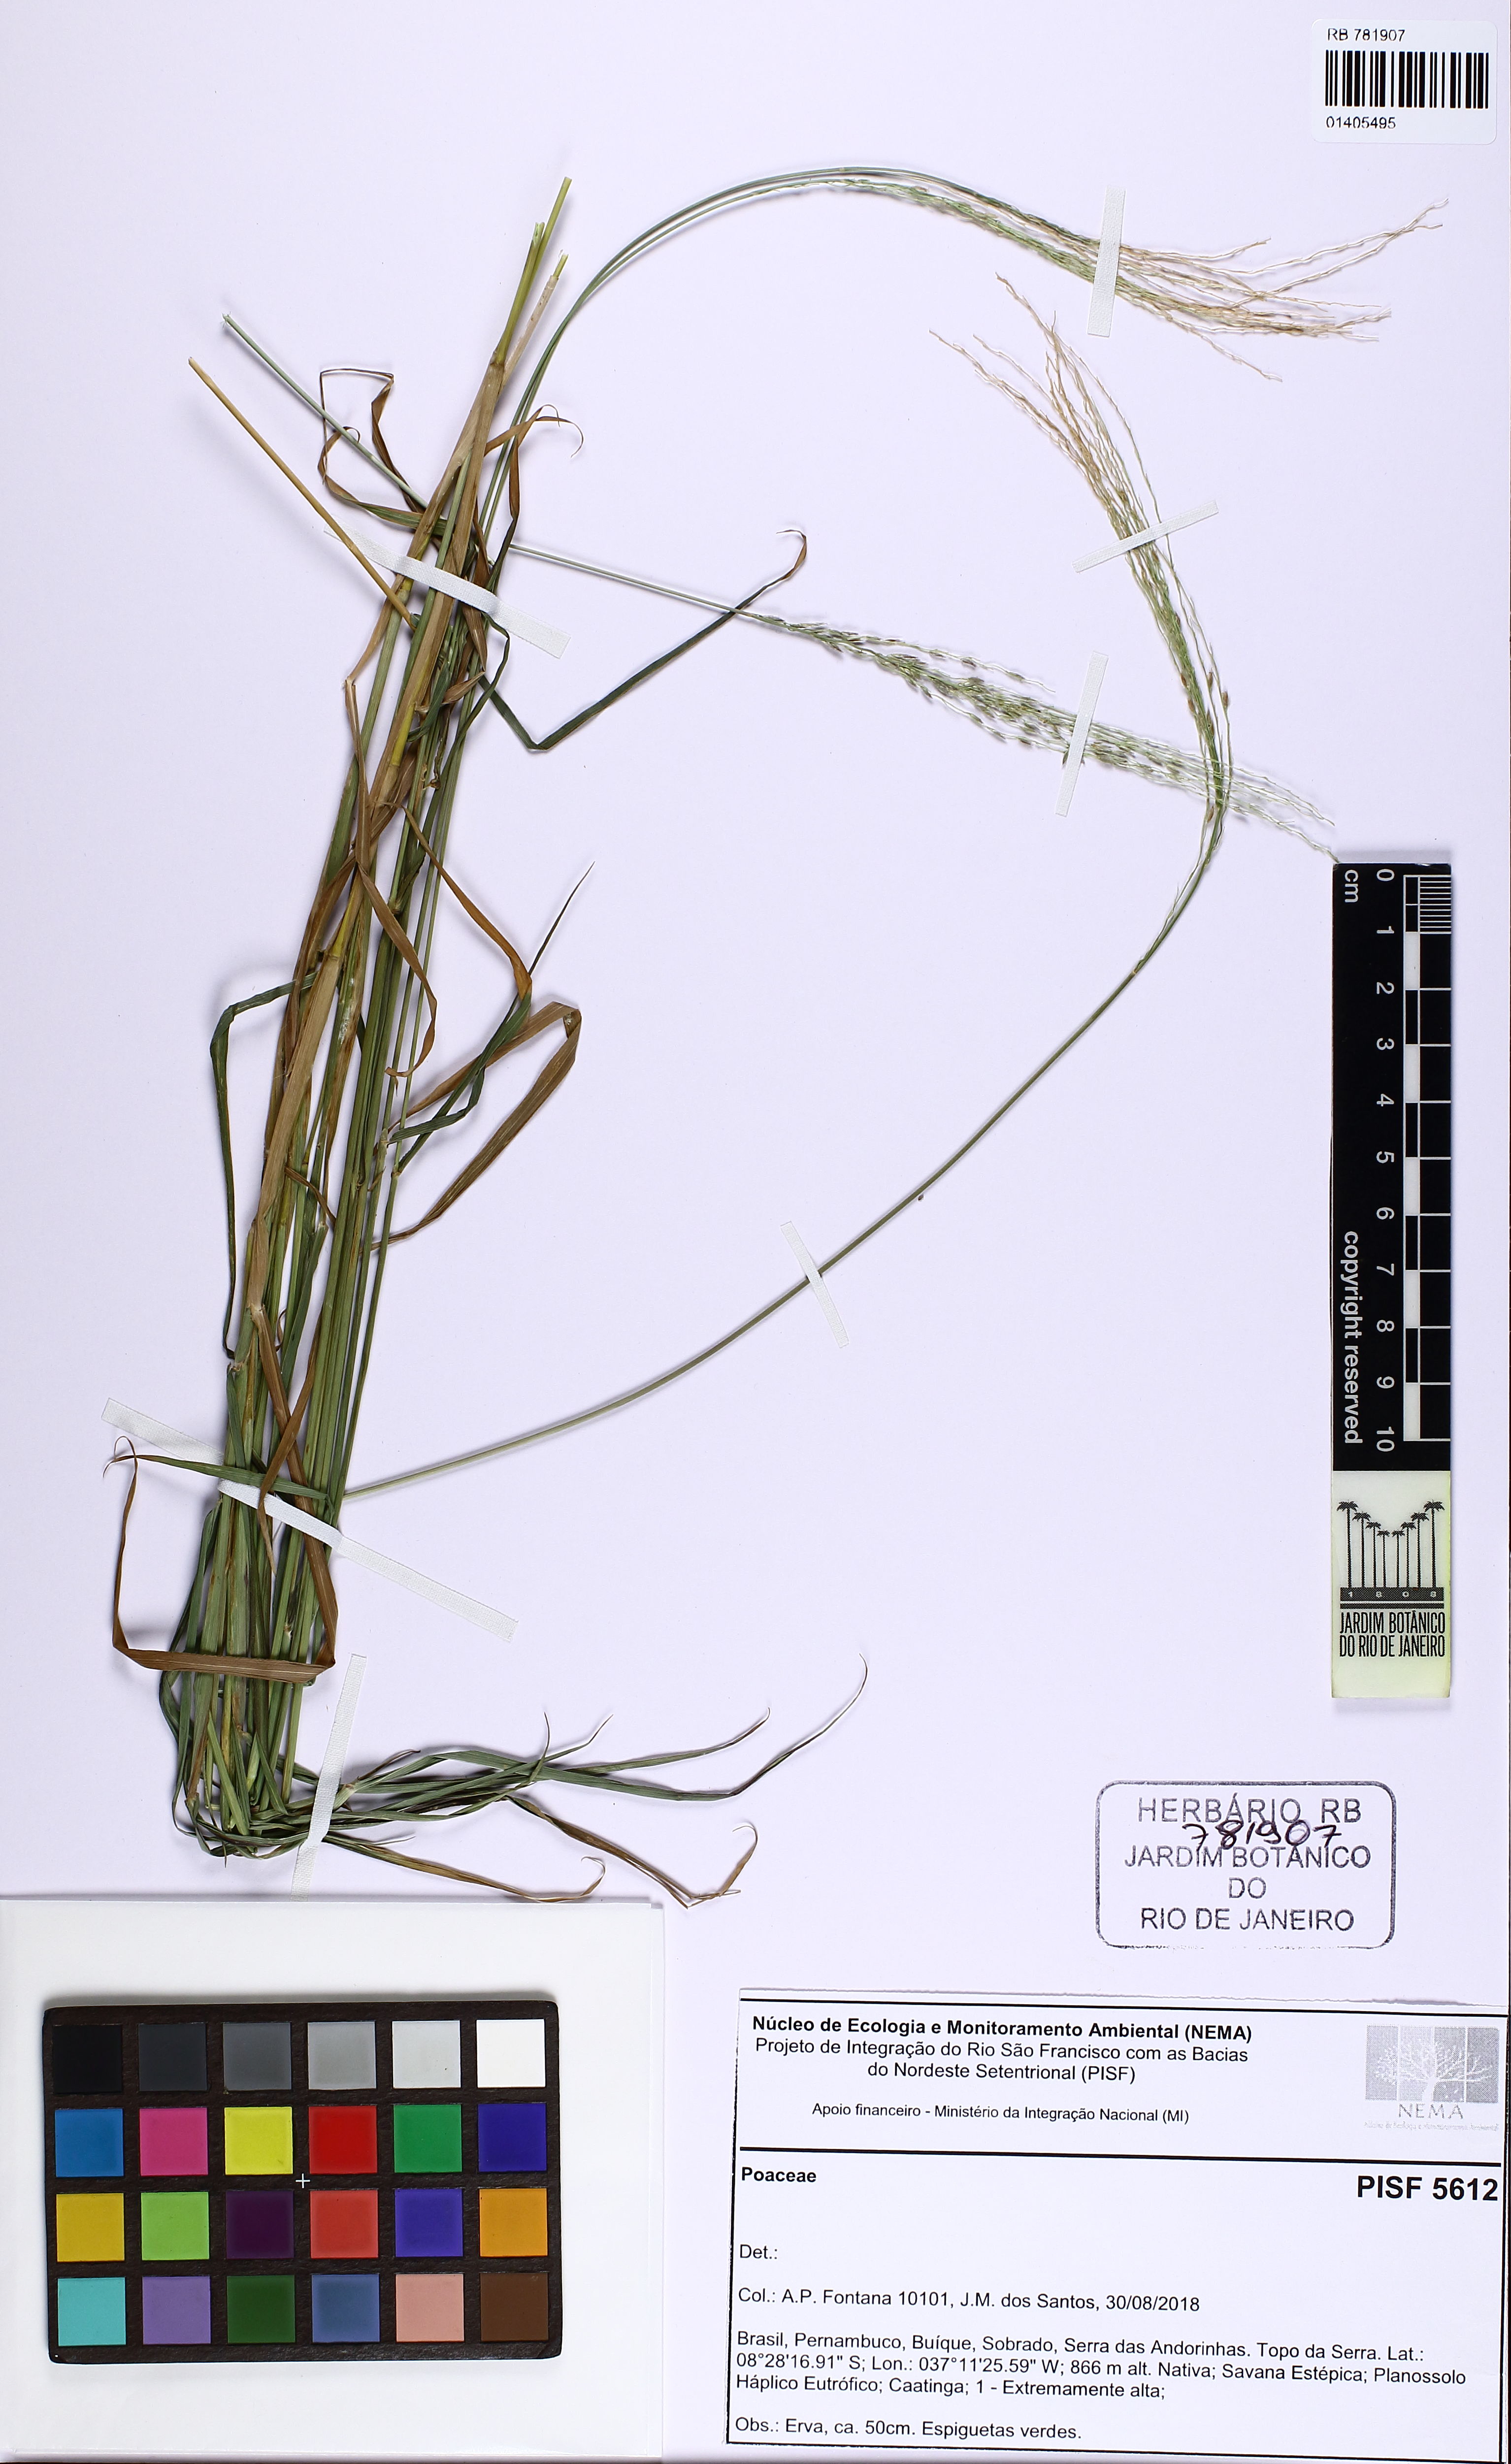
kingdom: Plantae
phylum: Tracheophyta
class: Liliopsida
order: Poales
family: Poaceae
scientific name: Poaceae
